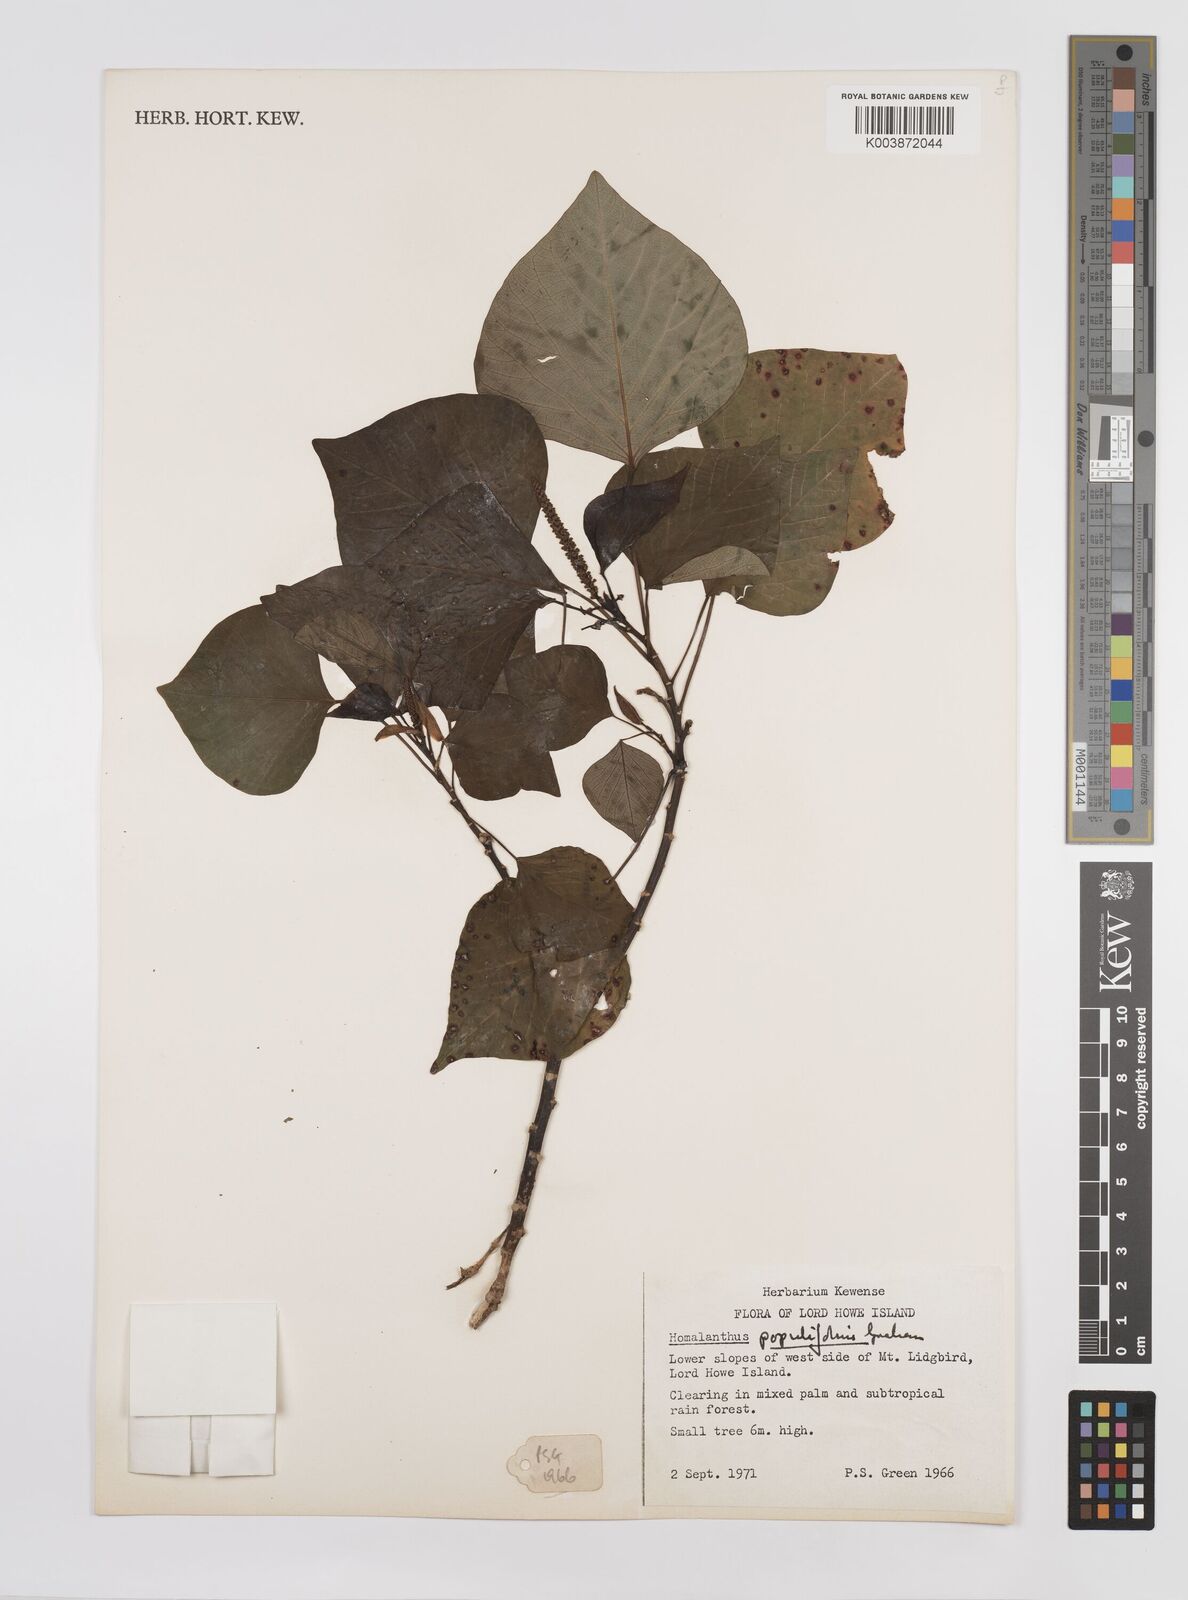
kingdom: Plantae
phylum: Tracheophyta
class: Magnoliopsida
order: Malpighiales
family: Euphorbiaceae
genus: Homalanthus
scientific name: Homalanthus populifolius
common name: Queensland poplar
